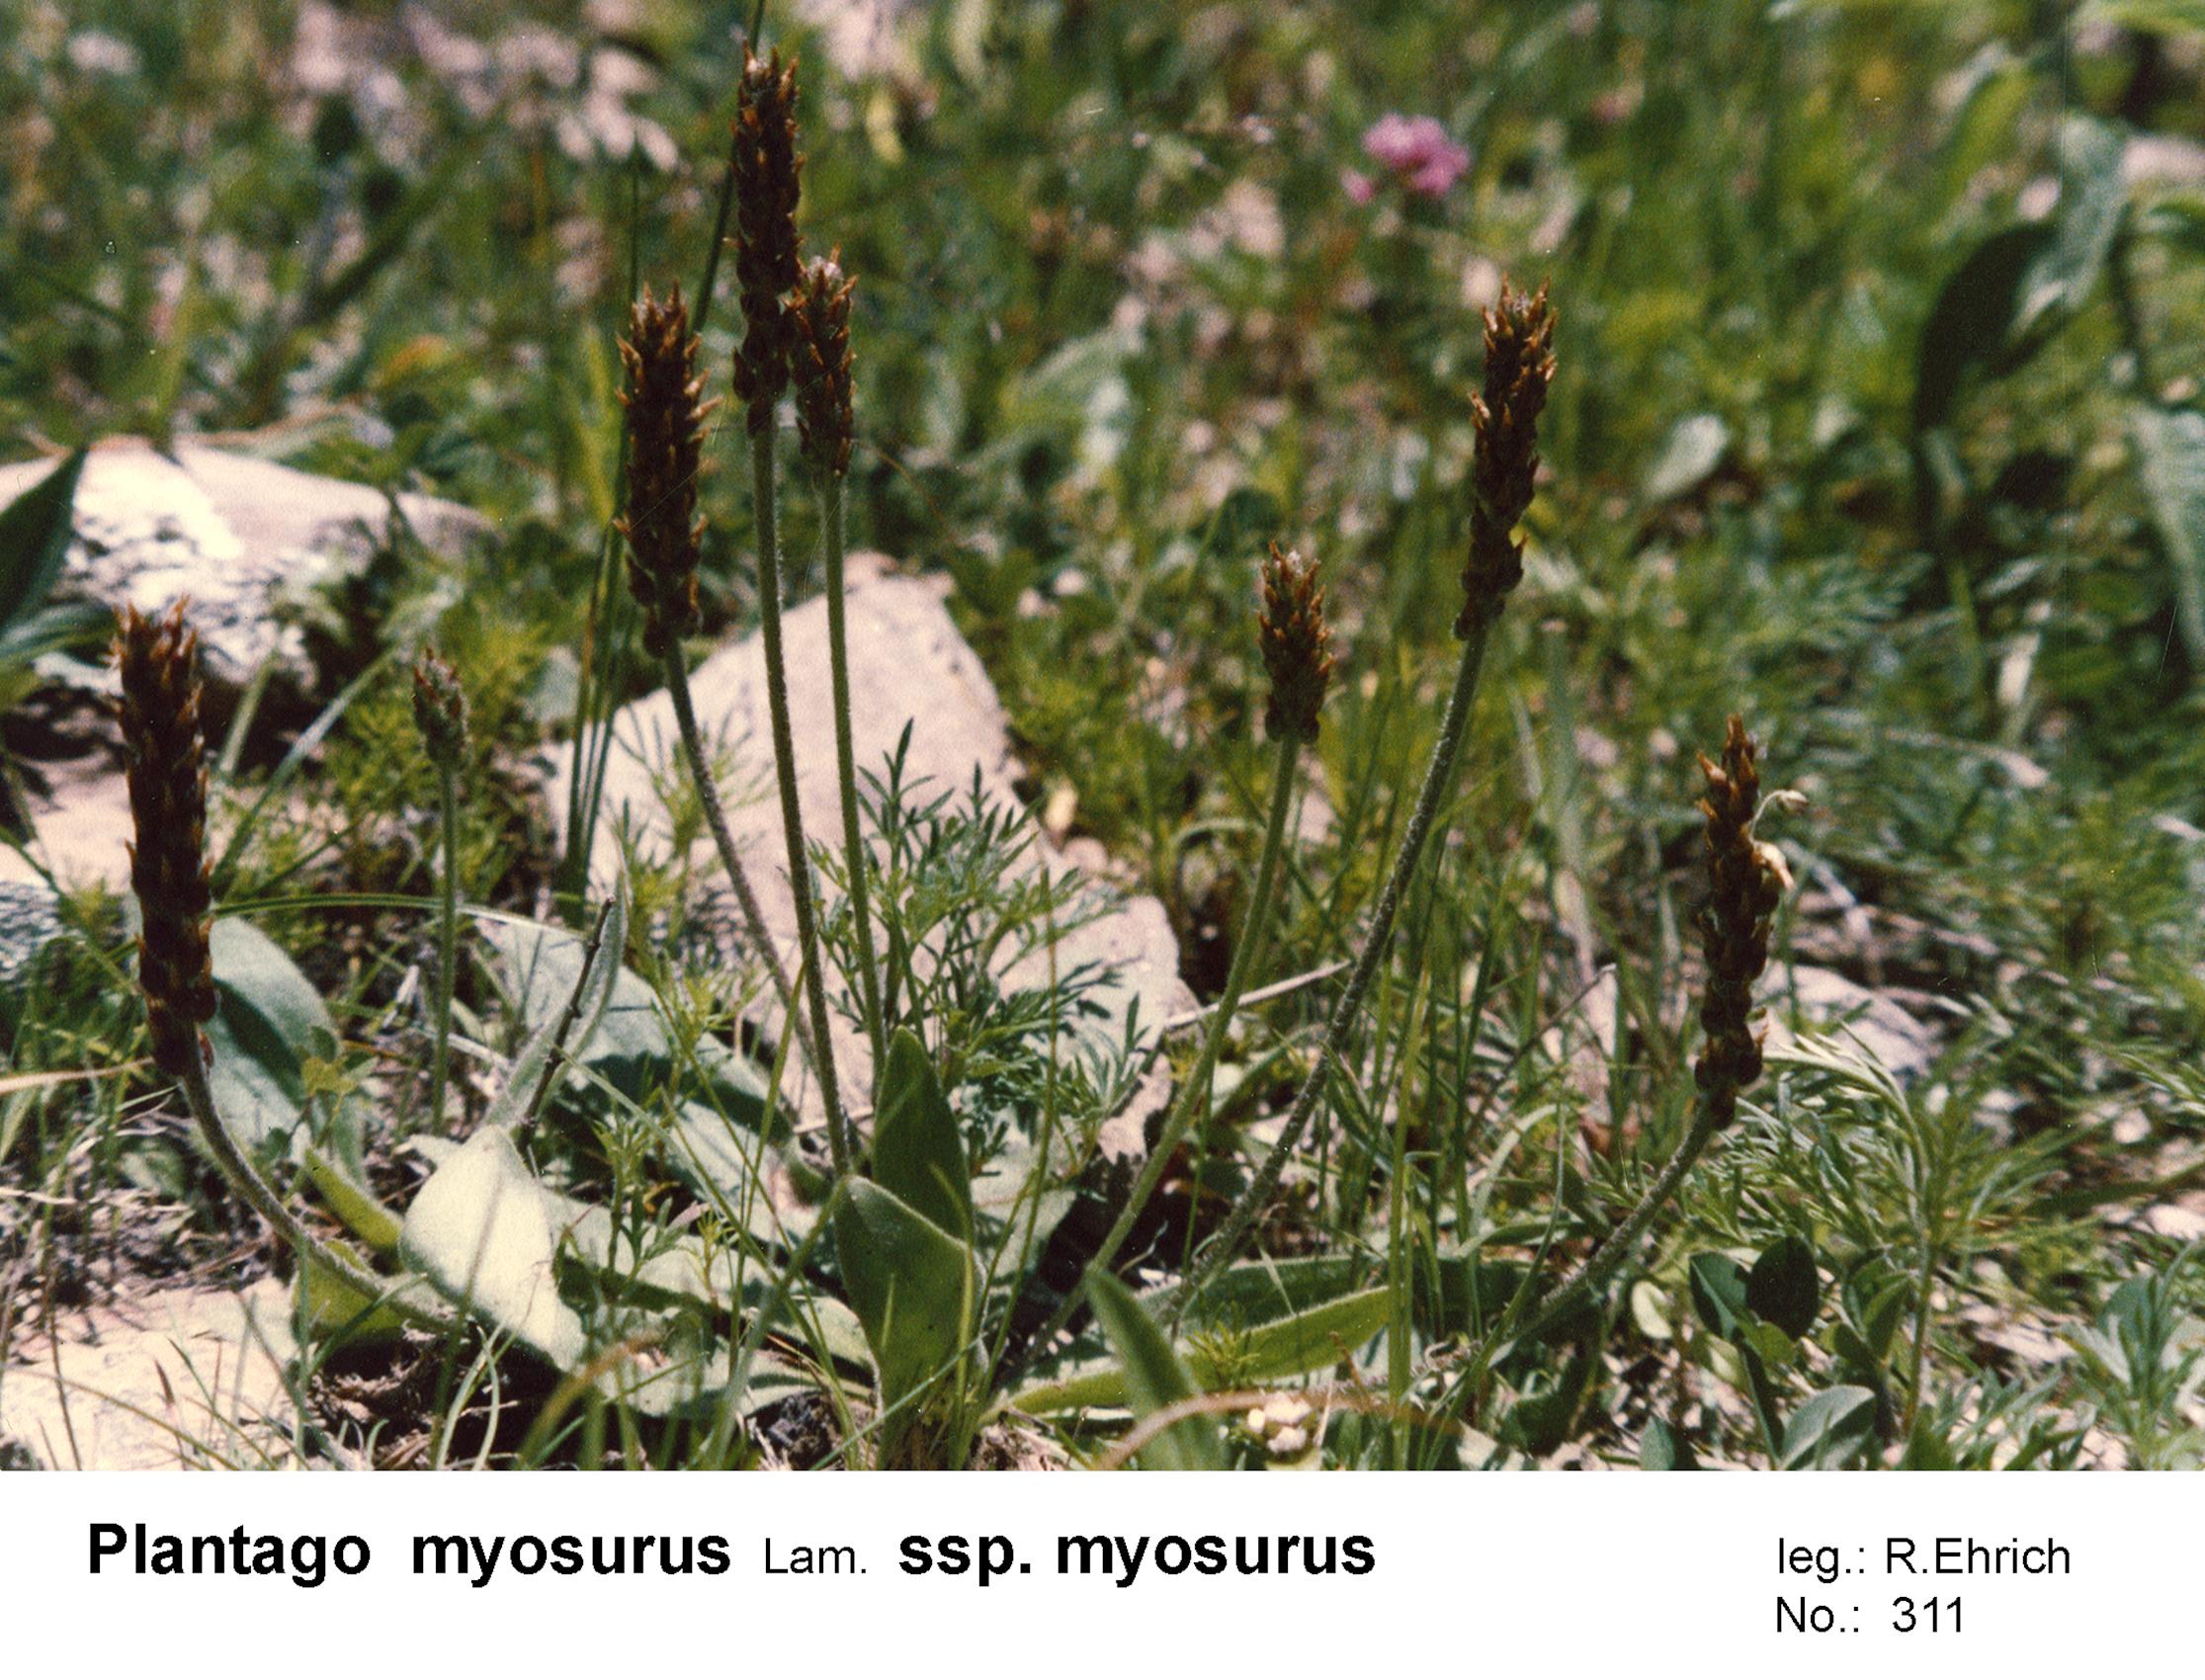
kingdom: Plantae
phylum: Tracheophyta
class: Magnoliopsida
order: Lamiales
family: Plantaginaceae
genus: Plantago
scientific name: Plantago myosurus
